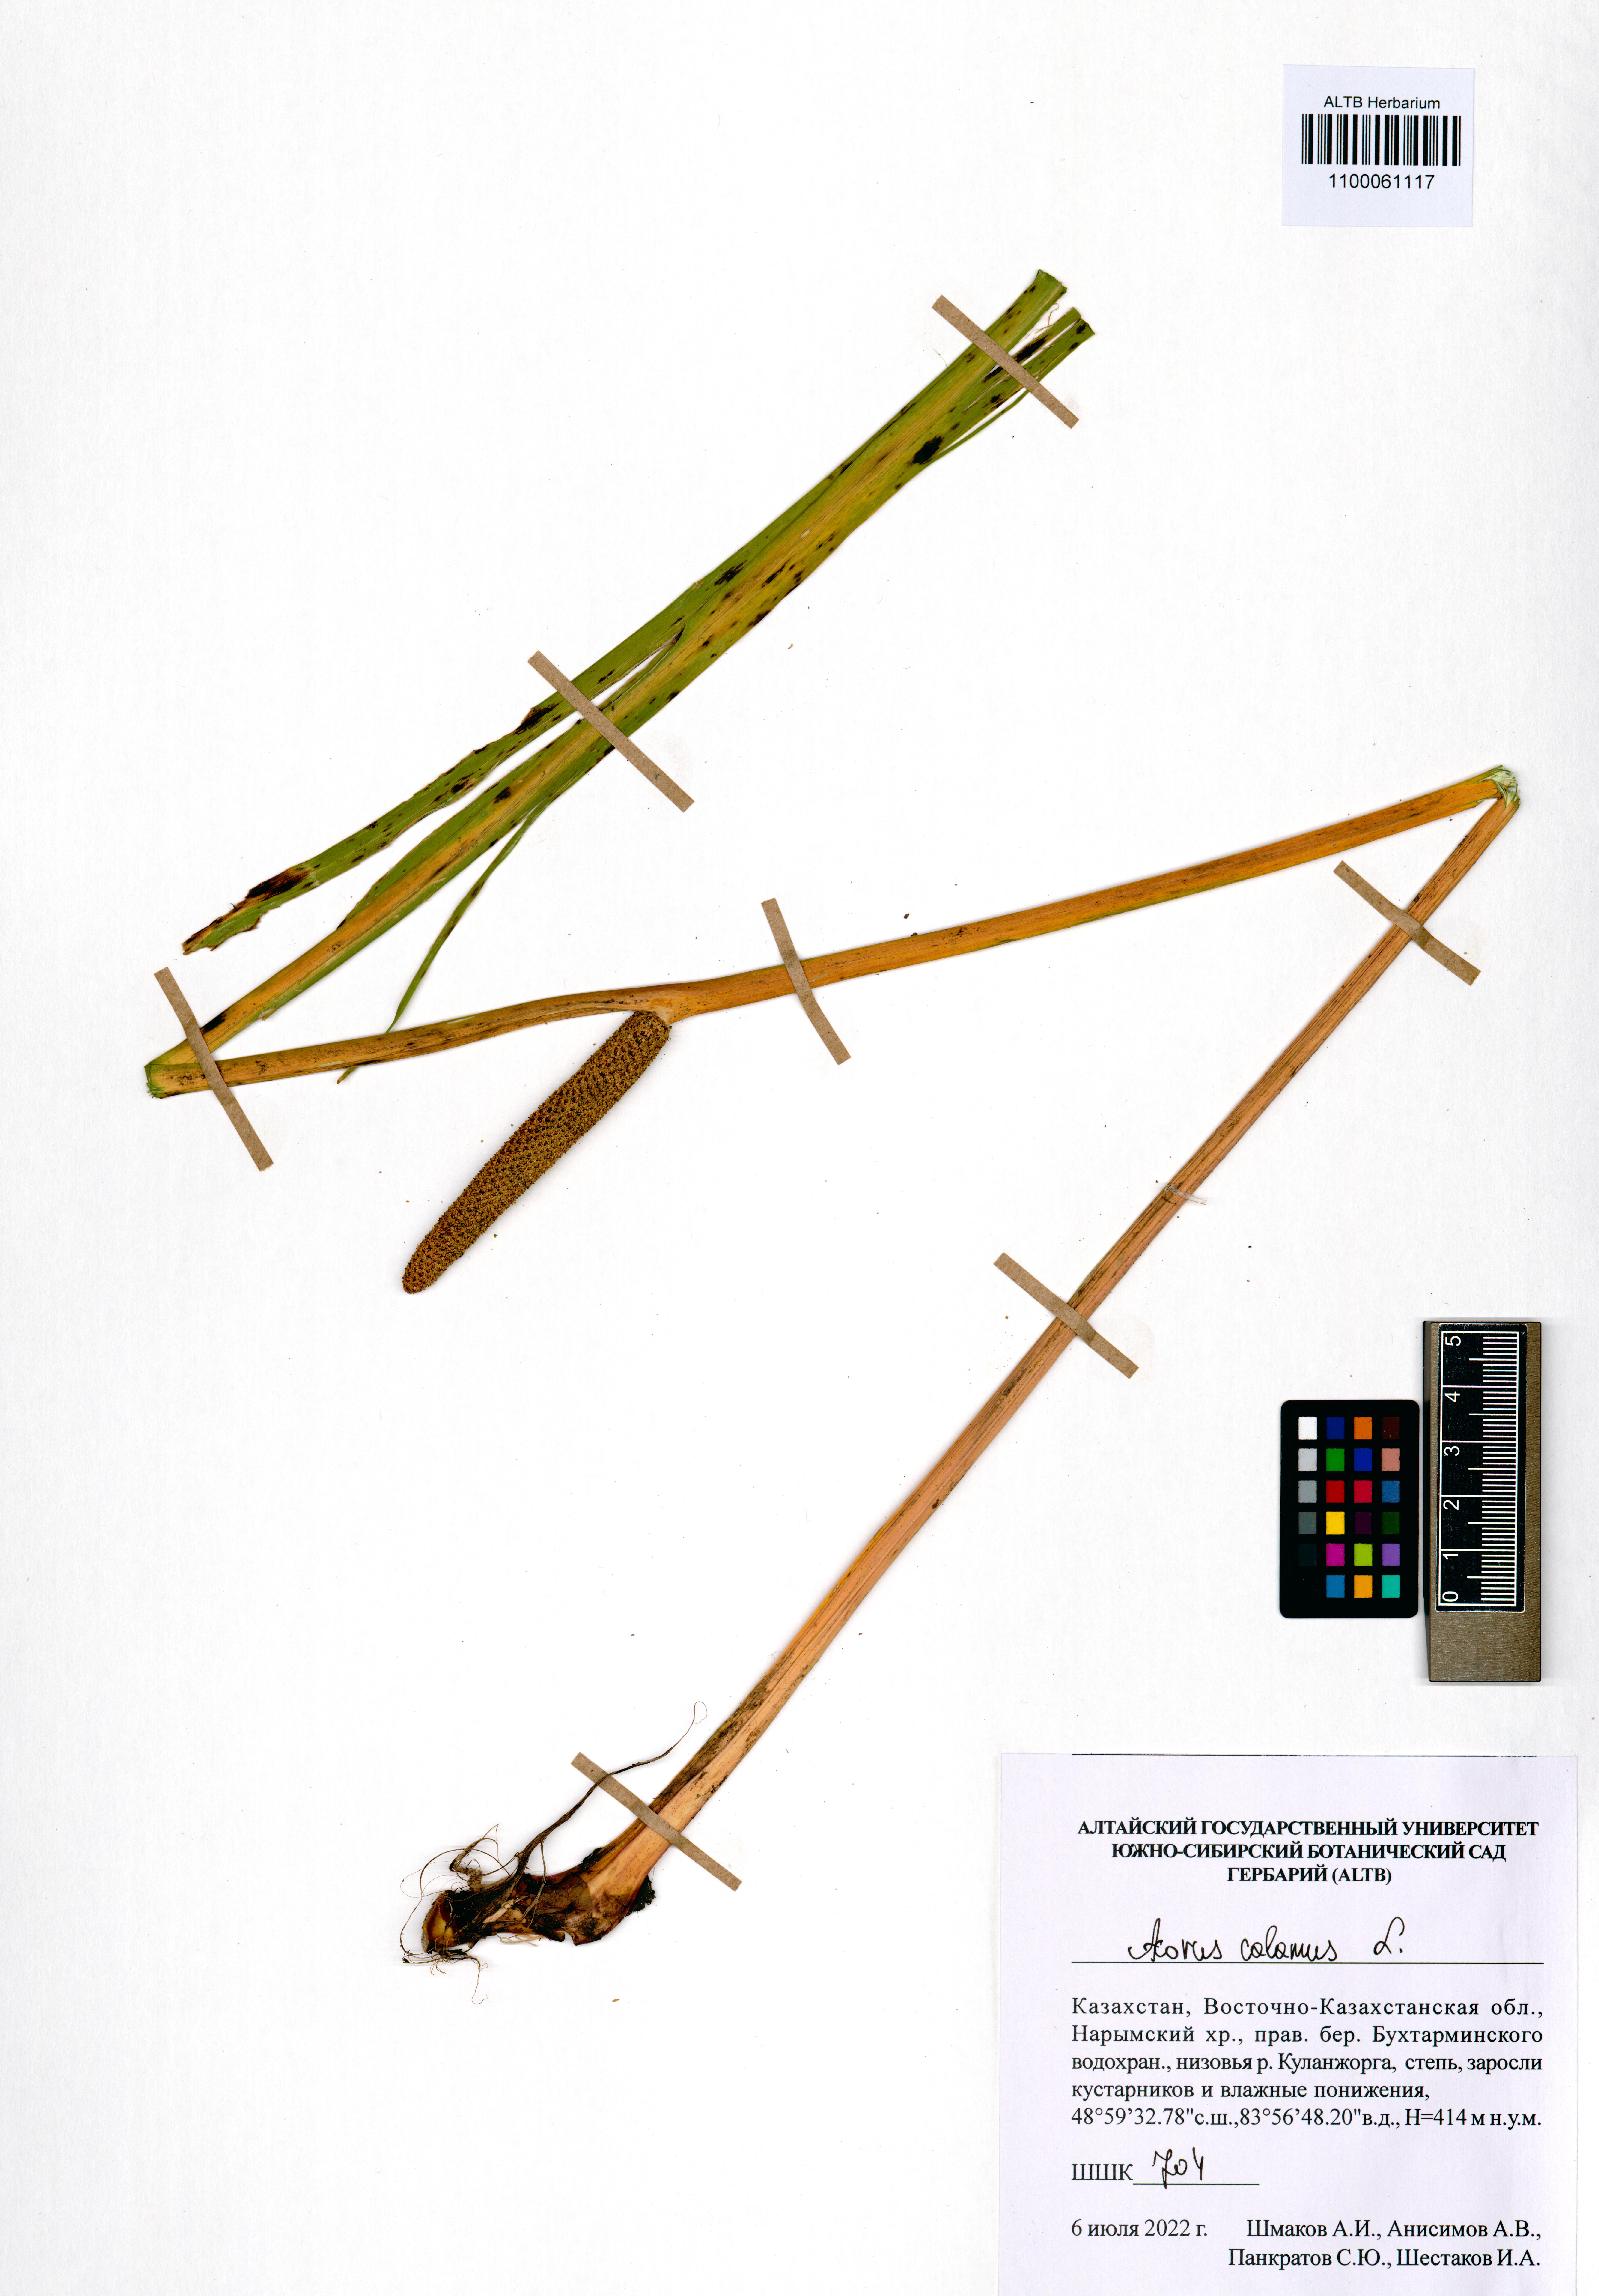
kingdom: Plantae
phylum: Tracheophyta
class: Liliopsida
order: Acorales
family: Acoraceae
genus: Acorus
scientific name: Acorus calamus
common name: Sweet-flag
